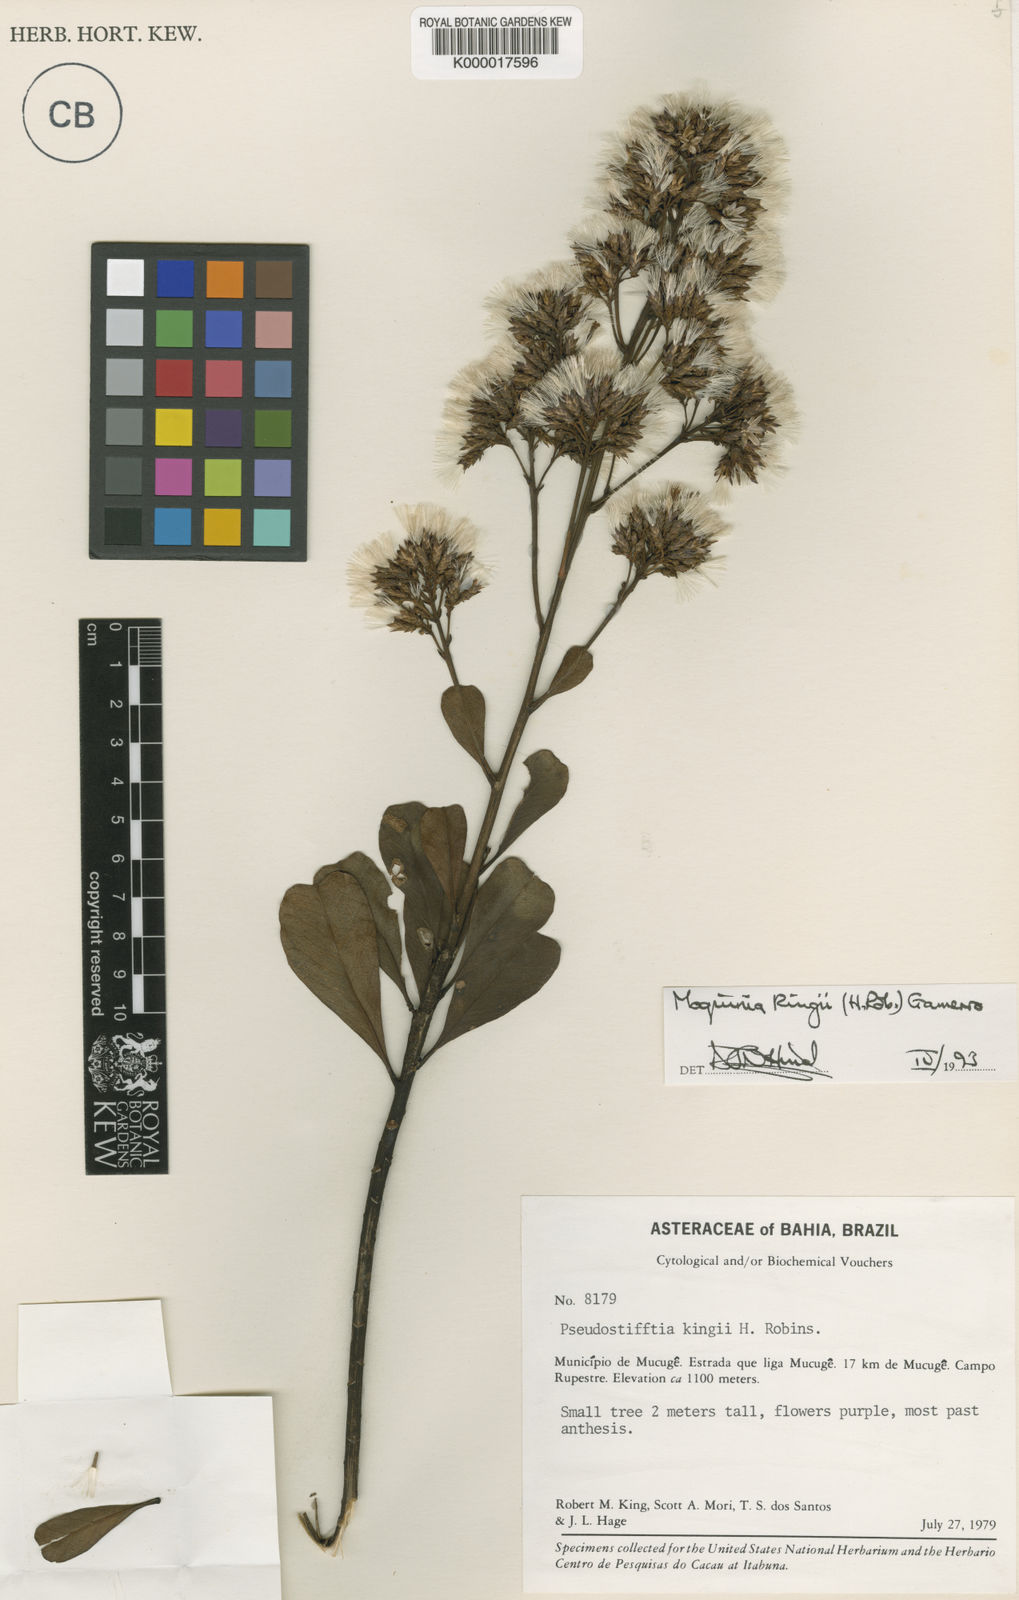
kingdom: Plantae
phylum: Tracheophyta
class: Magnoliopsida
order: Asterales
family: Asteraceae
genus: Pseudostifftia
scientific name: Pseudostifftia kingii
